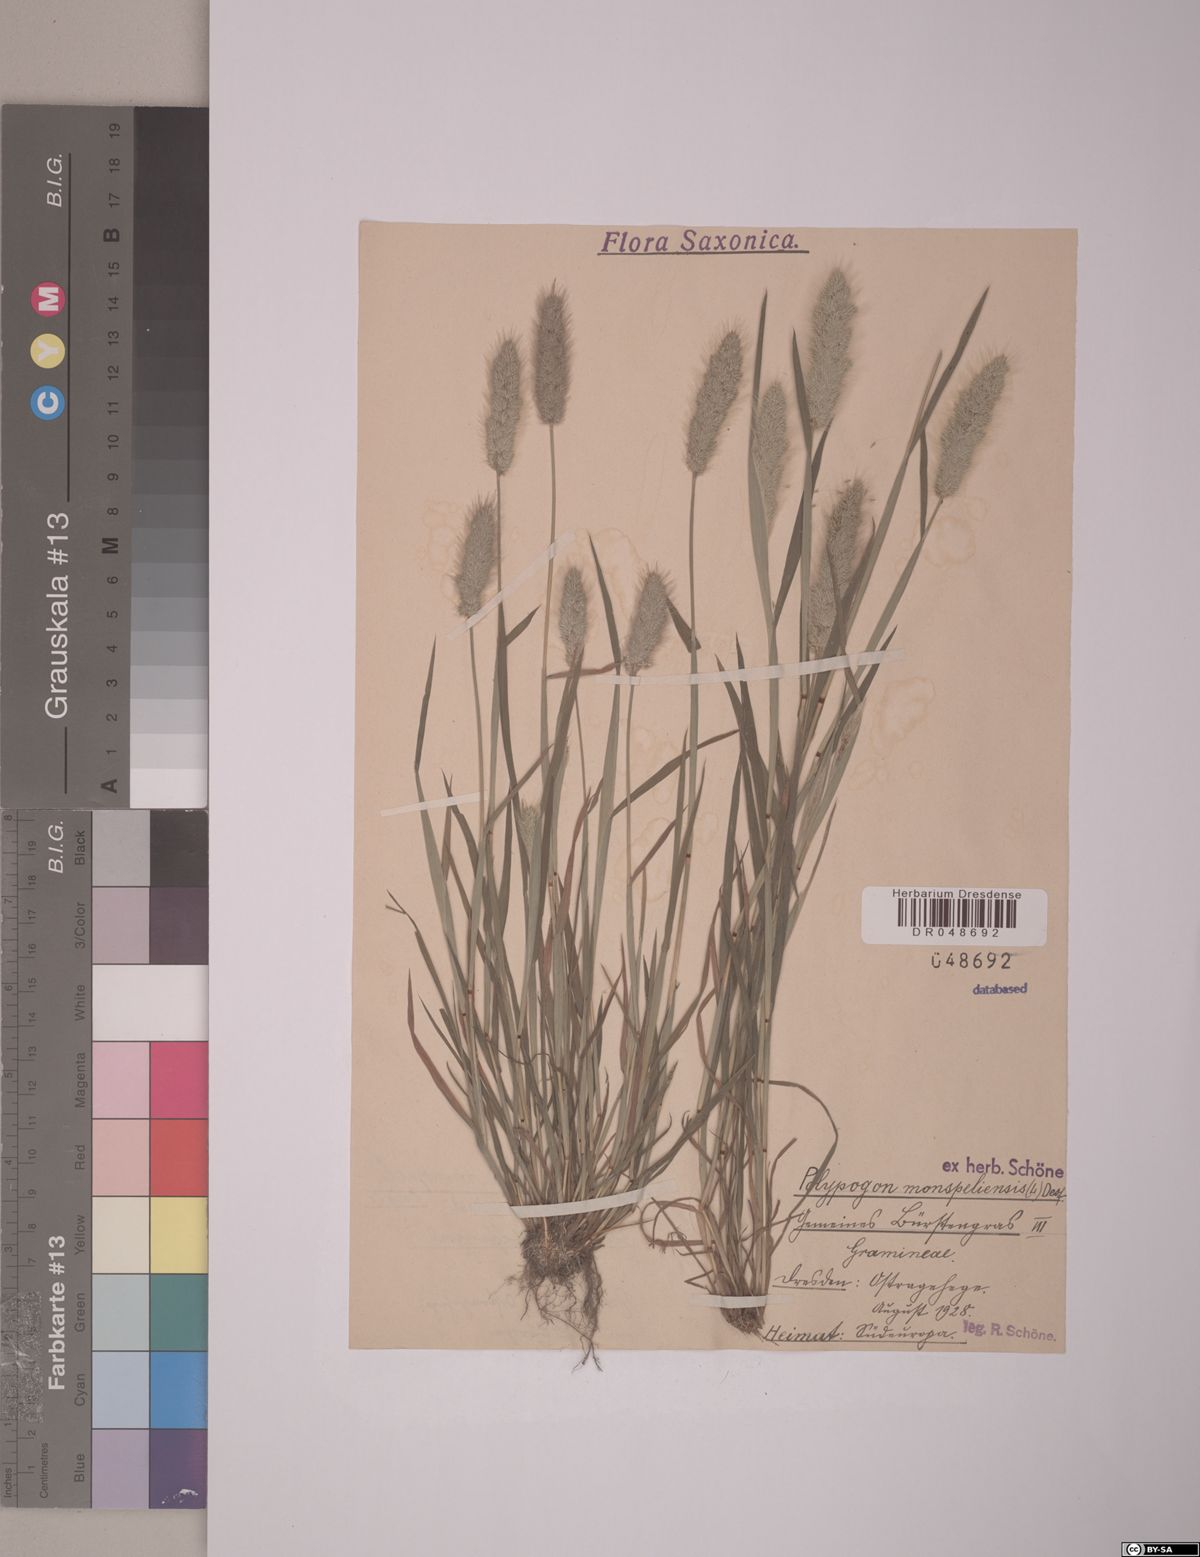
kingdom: Plantae
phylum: Tracheophyta
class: Liliopsida
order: Poales
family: Poaceae
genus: Polypogon
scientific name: Polypogon monspeliensis
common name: Annual rabbitsfoot grass
